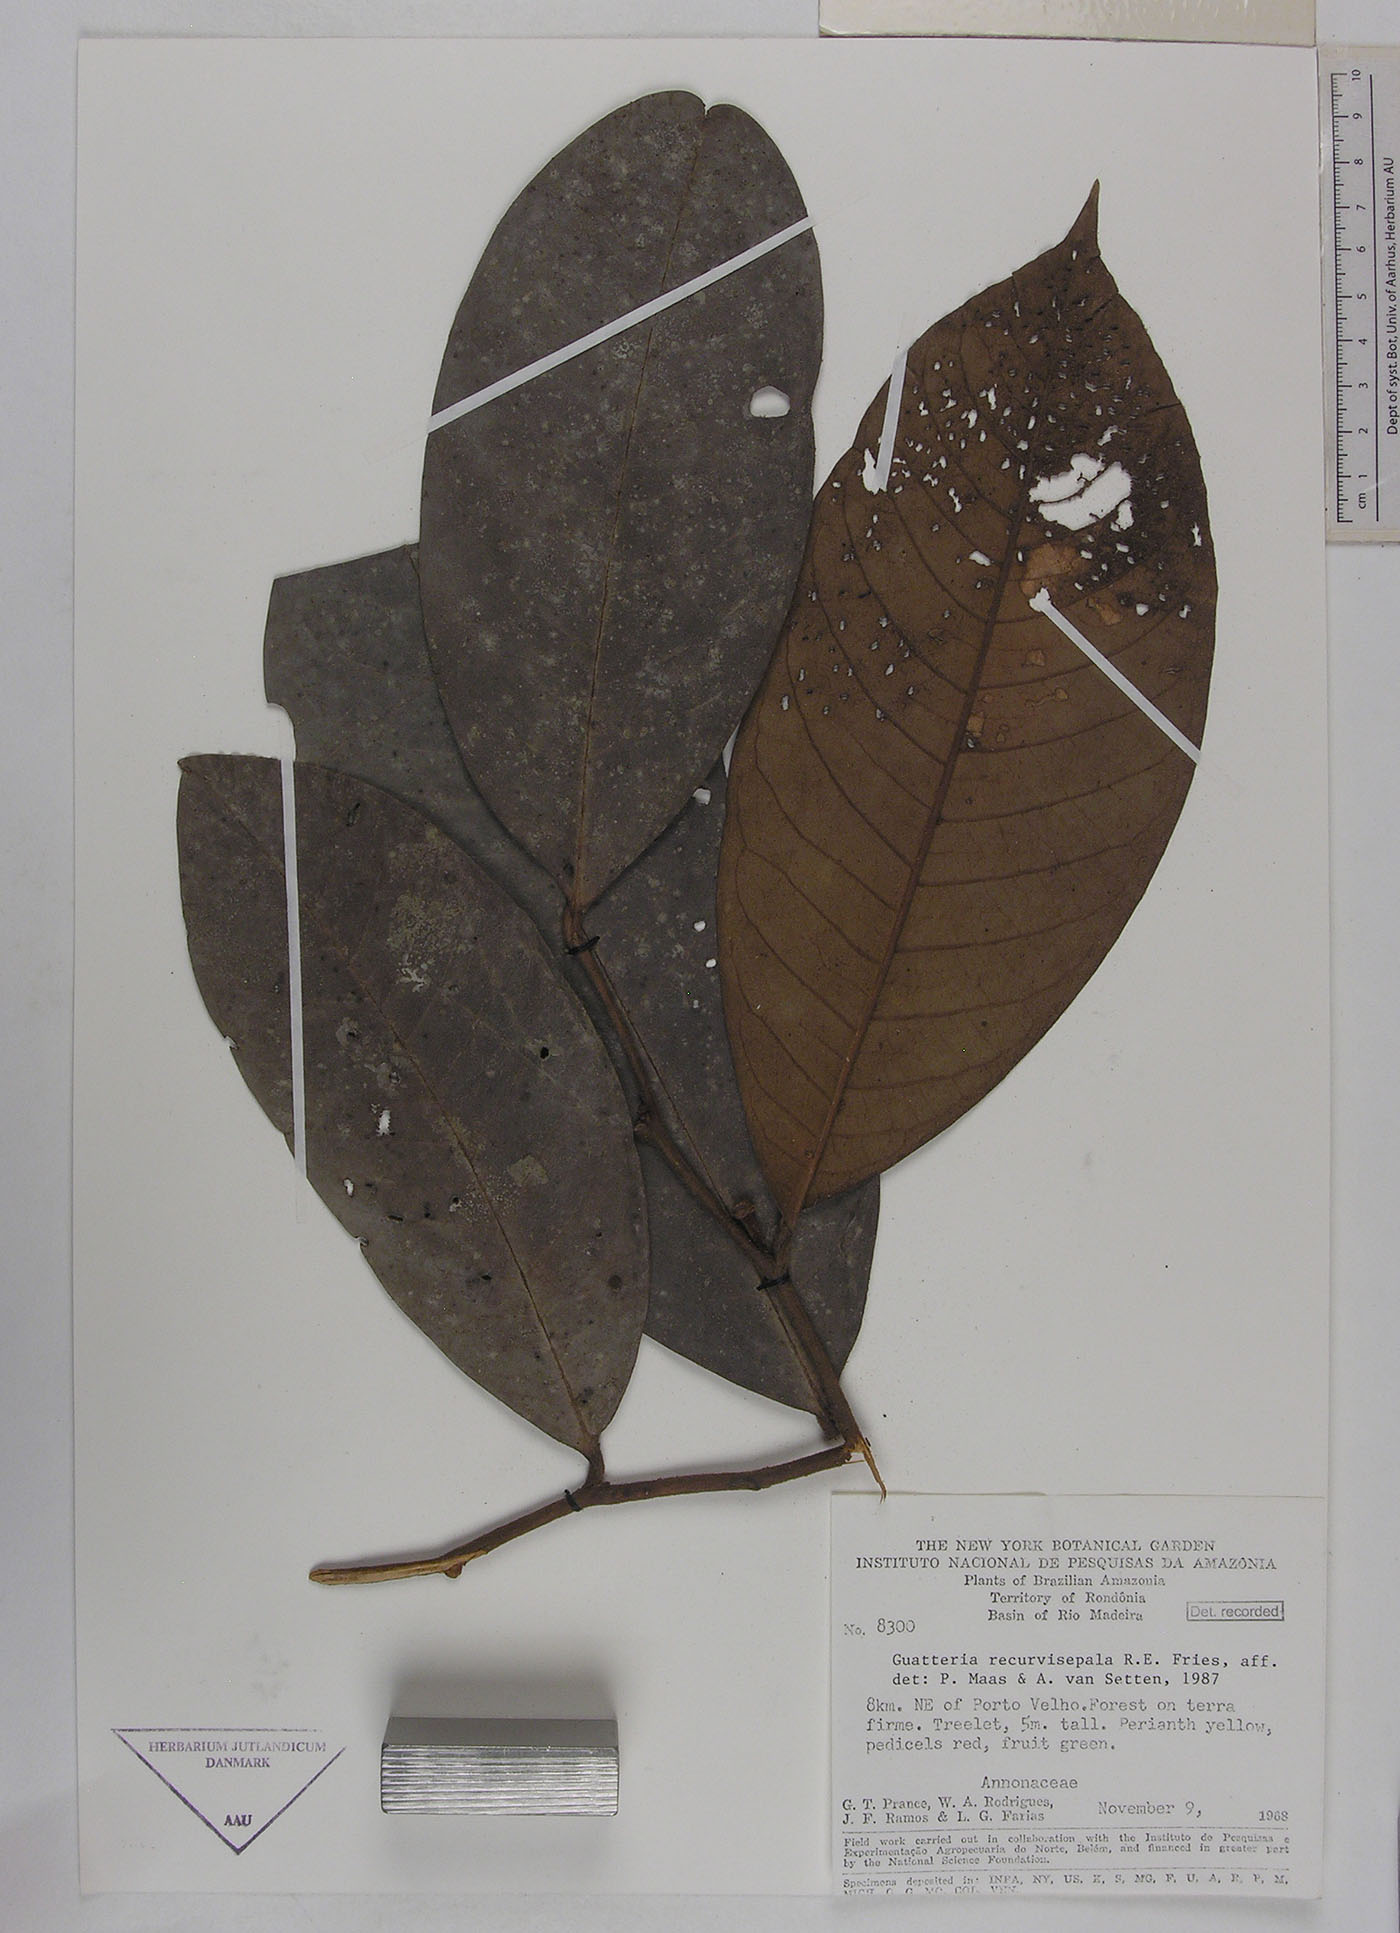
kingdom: Plantae
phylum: Tracheophyta
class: Magnoliopsida
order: Magnoliales
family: Annonaceae
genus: Guatteria
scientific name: Guatteria blepharophylla
